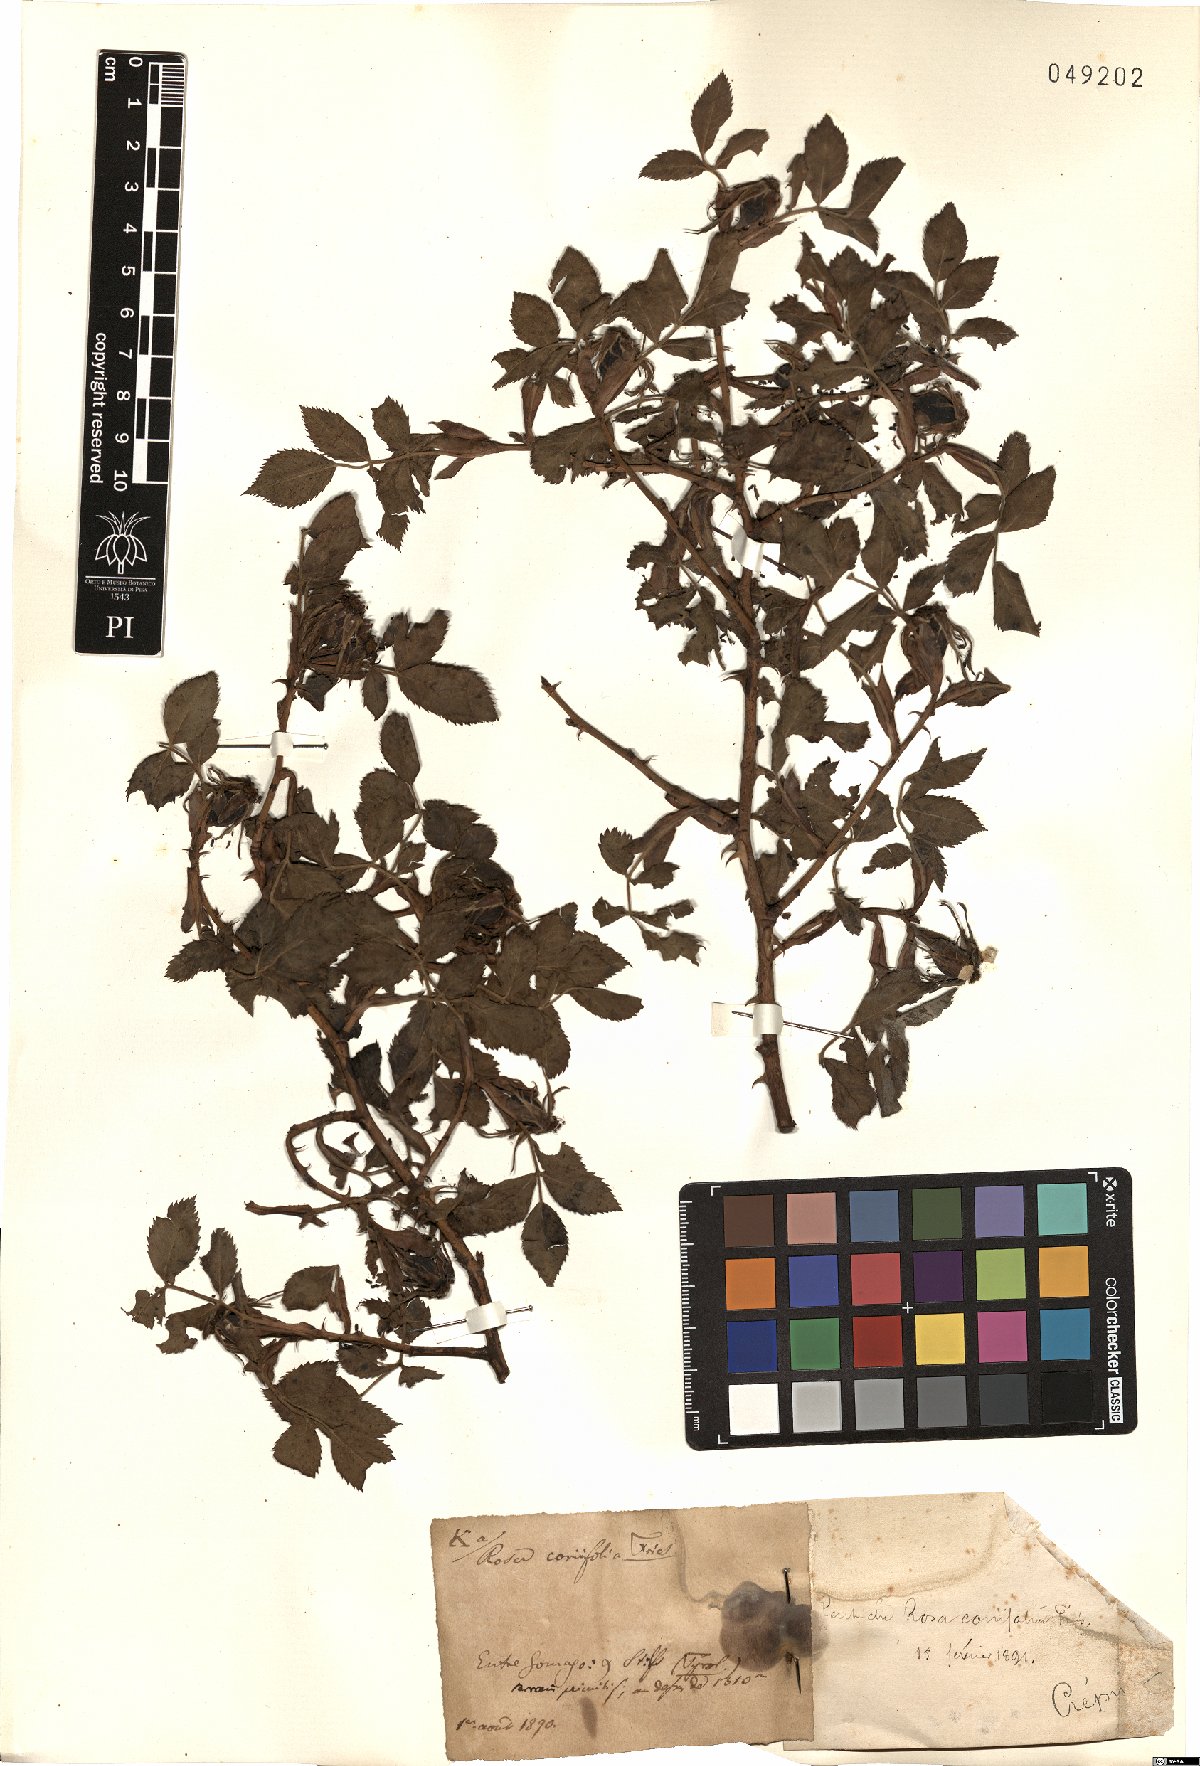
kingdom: Plantae
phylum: Tracheophyta
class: Magnoliopsida
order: Rosales
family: Rosaceae
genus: Rosa
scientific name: Rosa caesia
